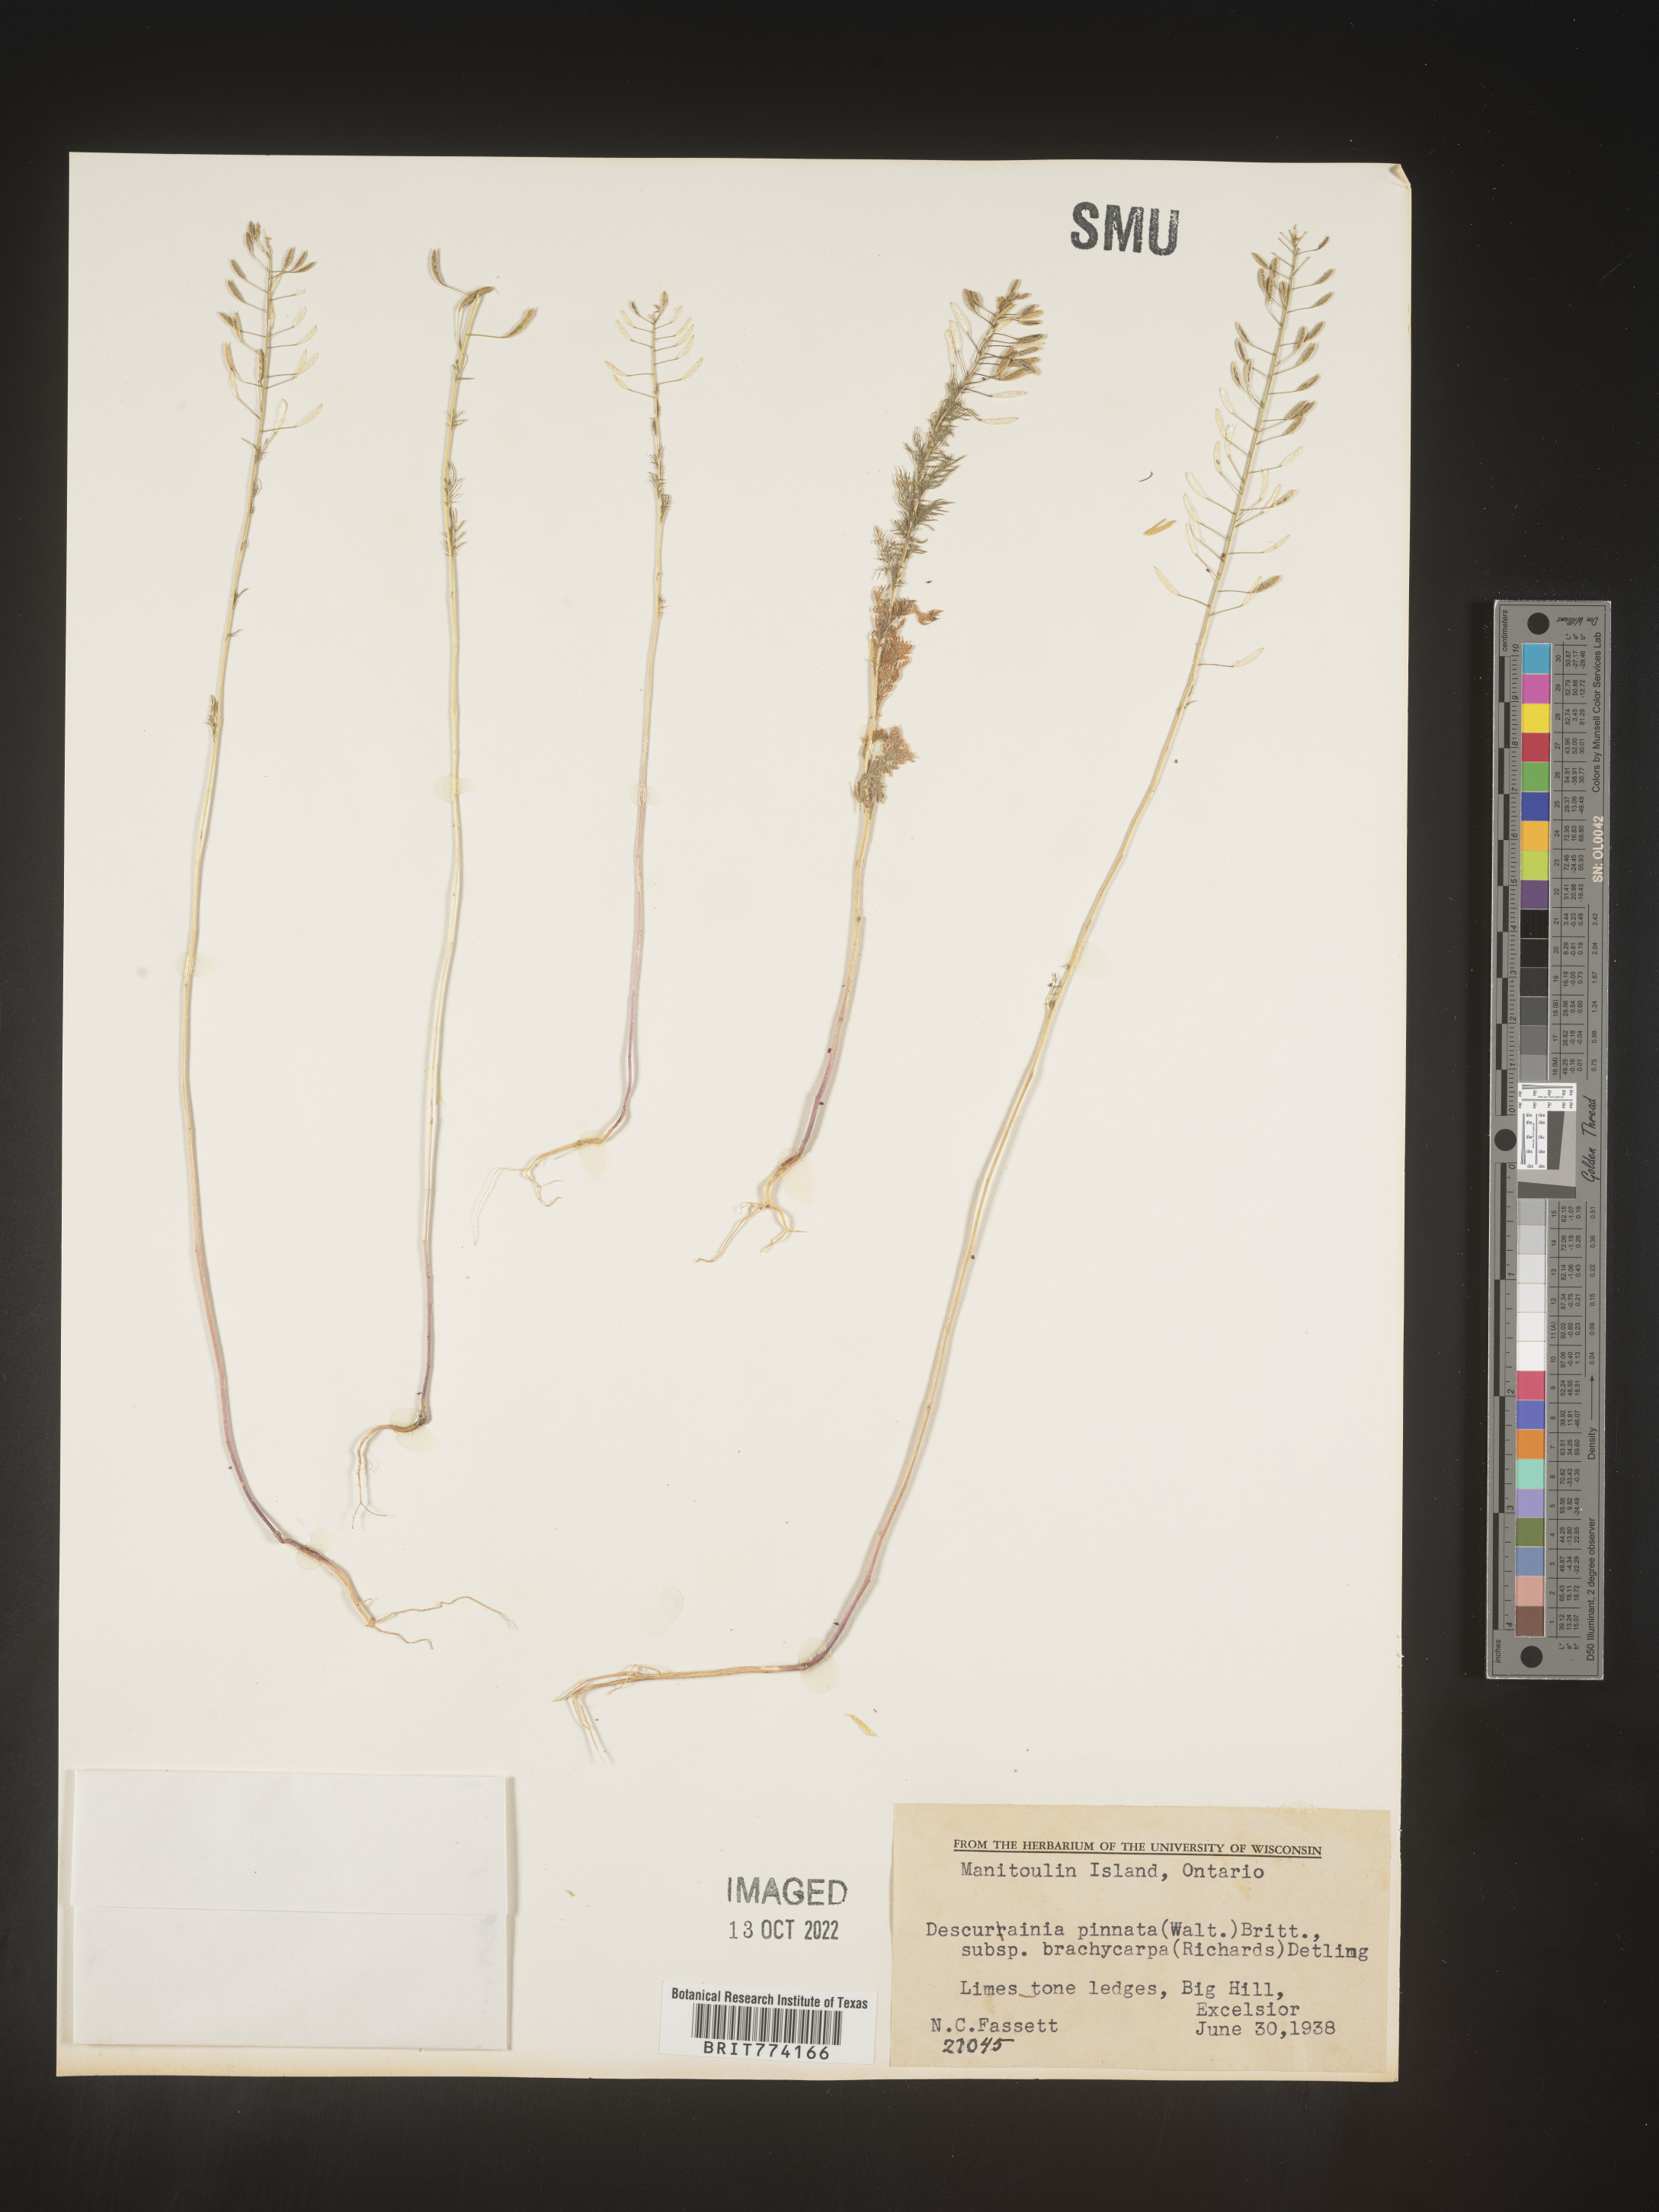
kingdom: Plantae
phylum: Tracheophyta
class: Magnoliopsida
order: Brassicales
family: Brassicaceae
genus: Descurainia
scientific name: Descurainia pinnata
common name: Western tansy mustard
